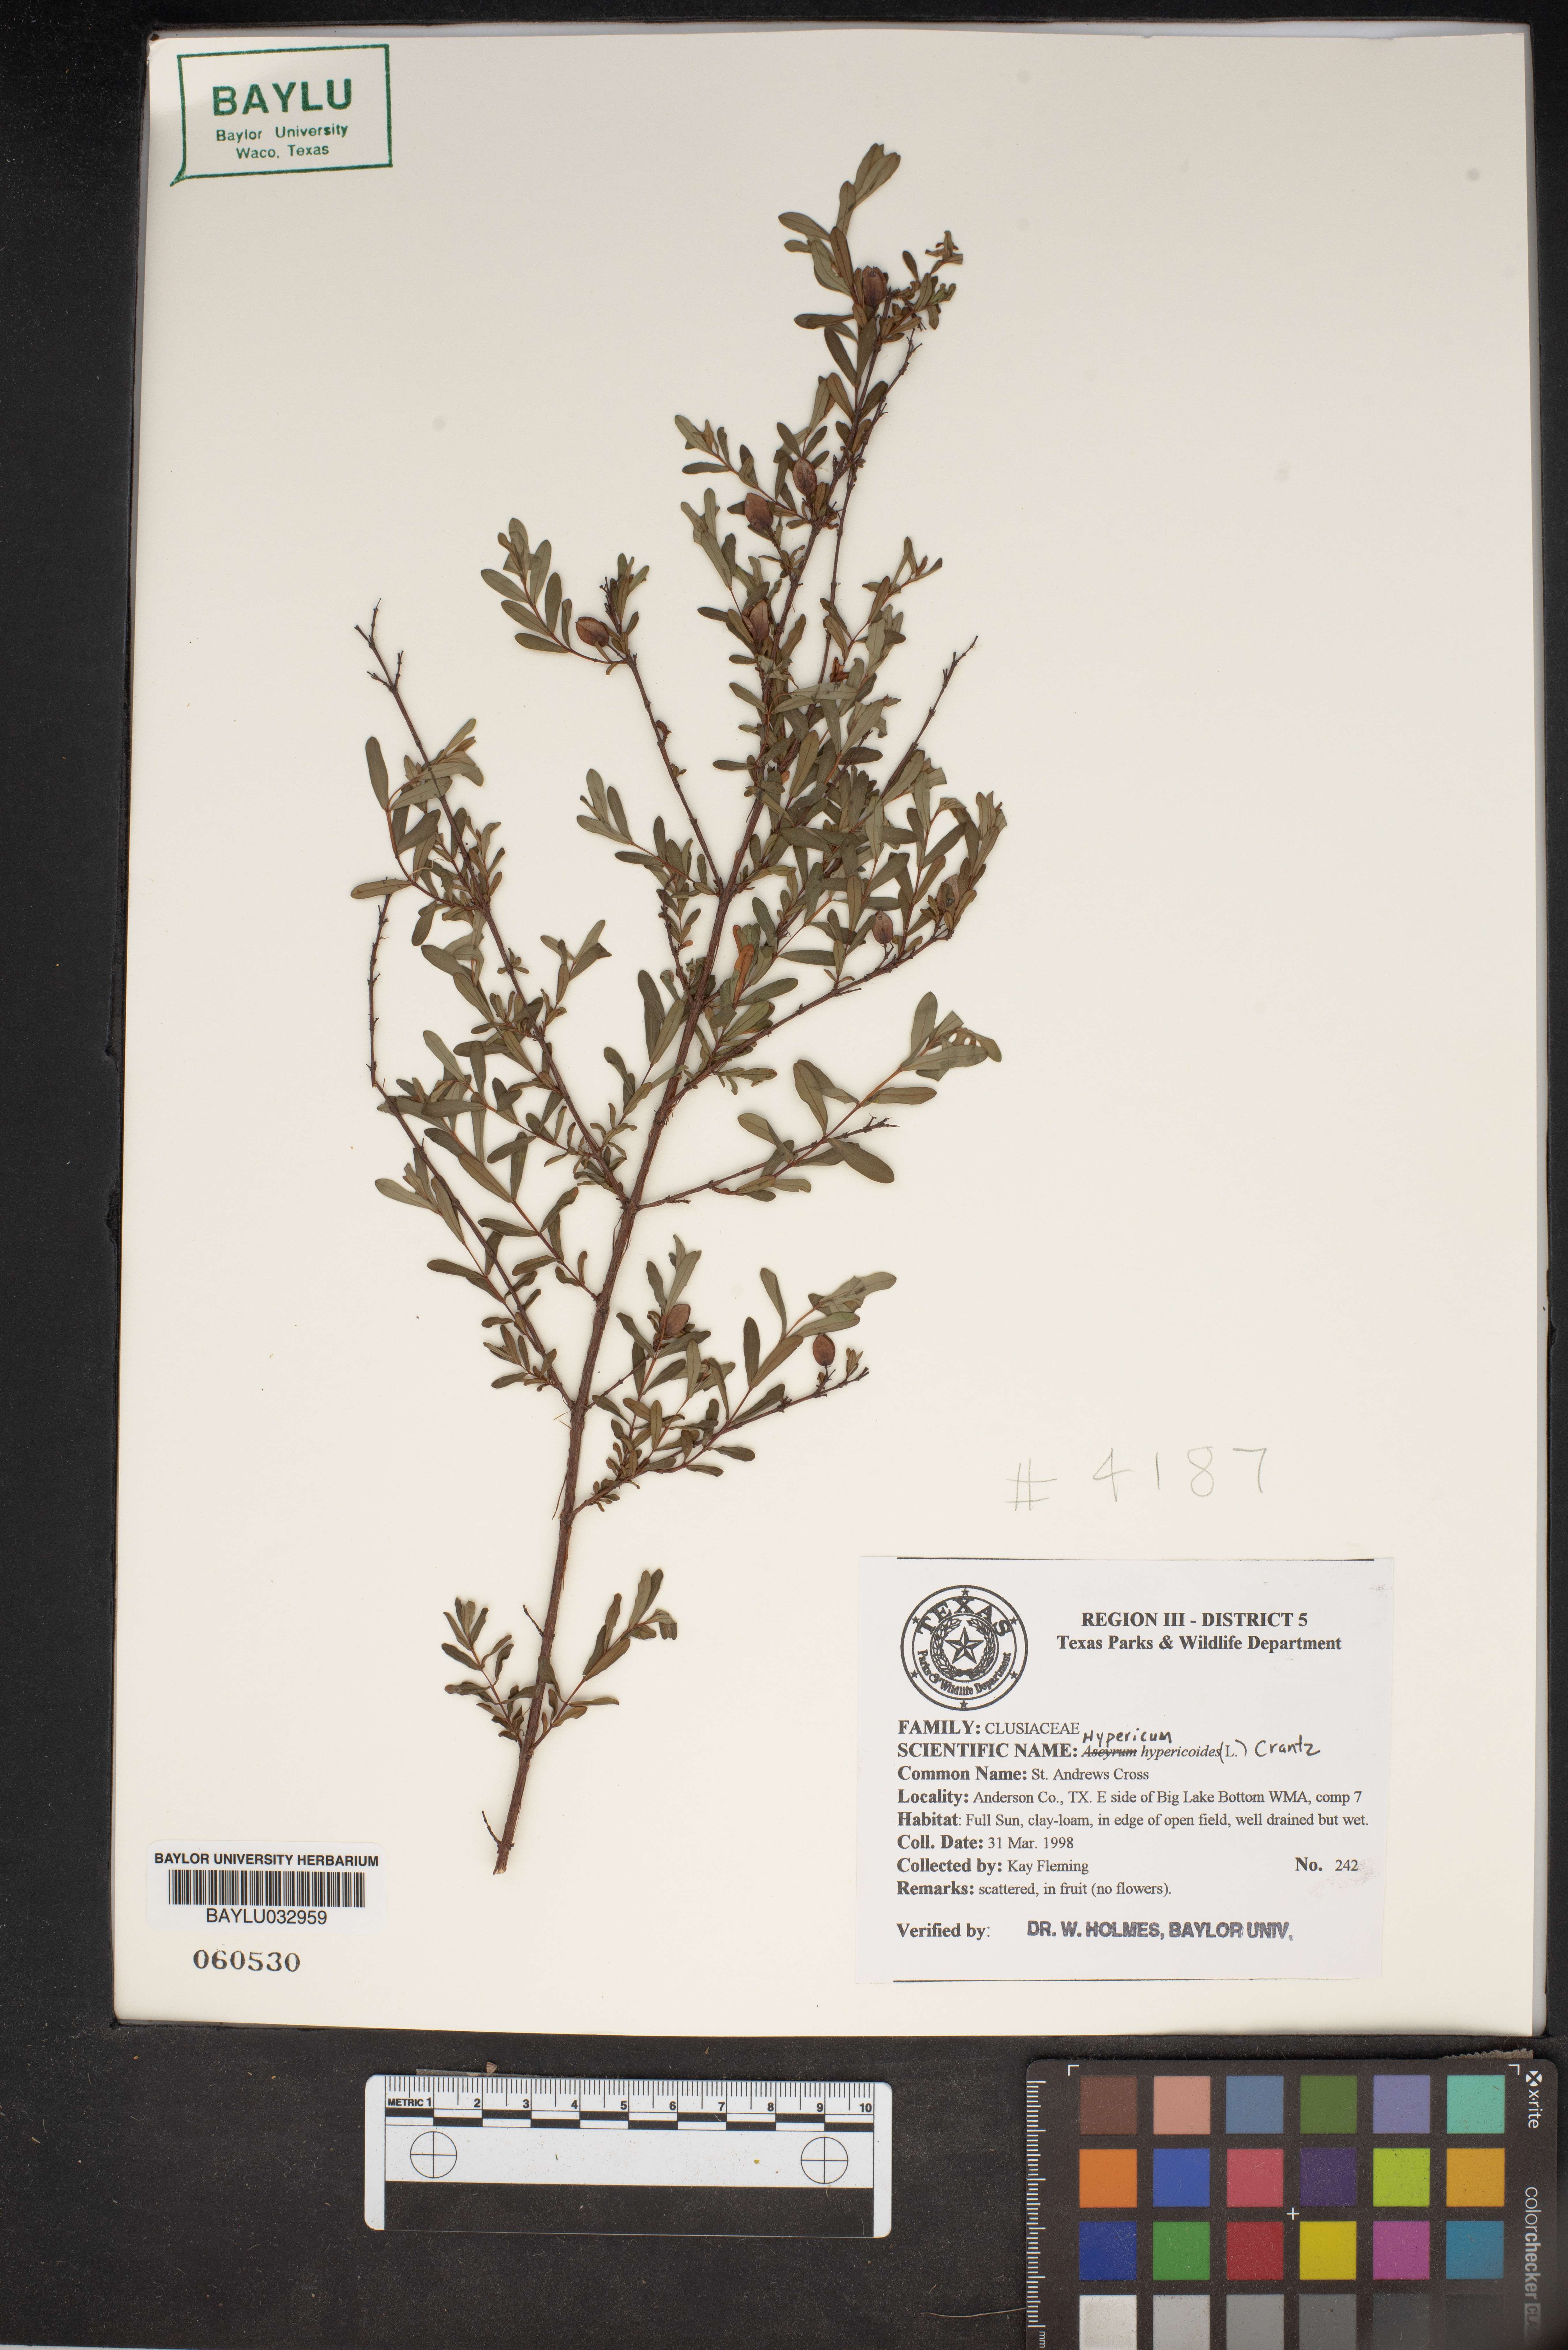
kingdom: Plantae
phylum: Tracheophyta
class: Magnoliopsida
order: Malpighiales
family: Hypericaceae
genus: Hypericum
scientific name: Hypericum hypericoides
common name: St. andrew's cross
